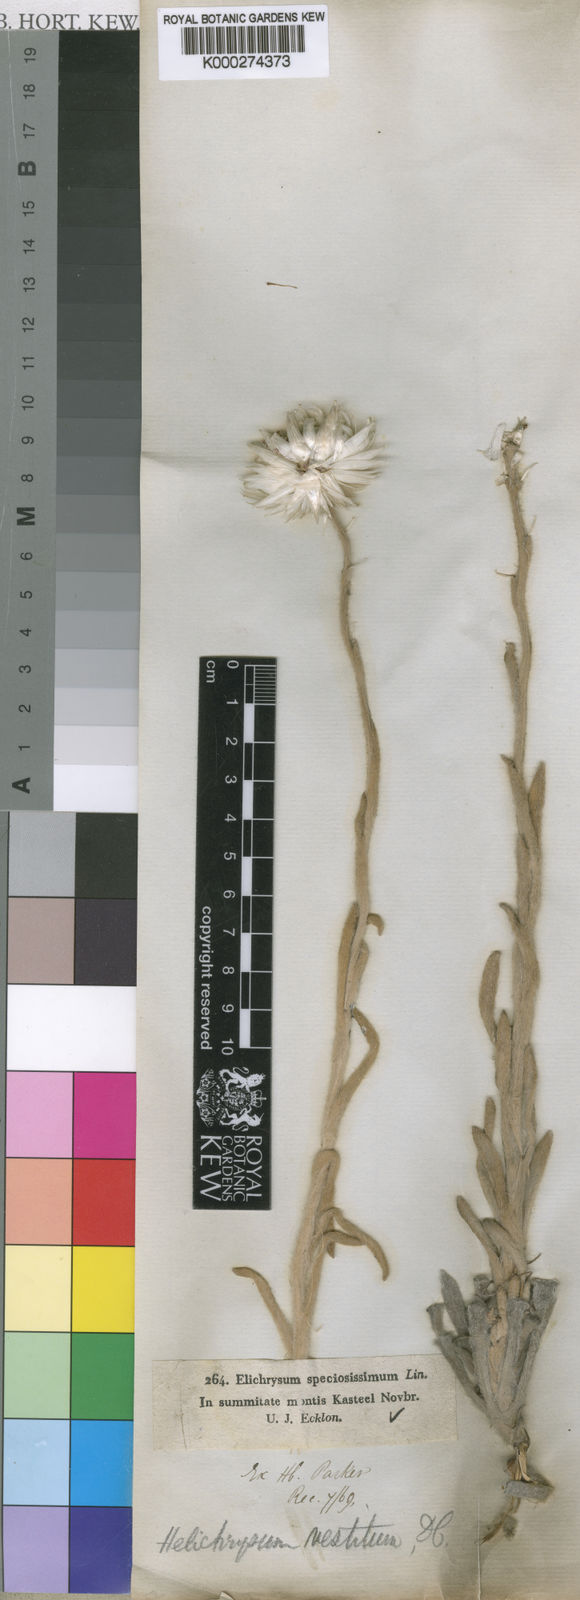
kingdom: Plantae
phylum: Tracheophyta
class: Magnoliopsida
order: Asterales
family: Asteraceae
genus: Syncarpha
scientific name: Syncarpha vestita
